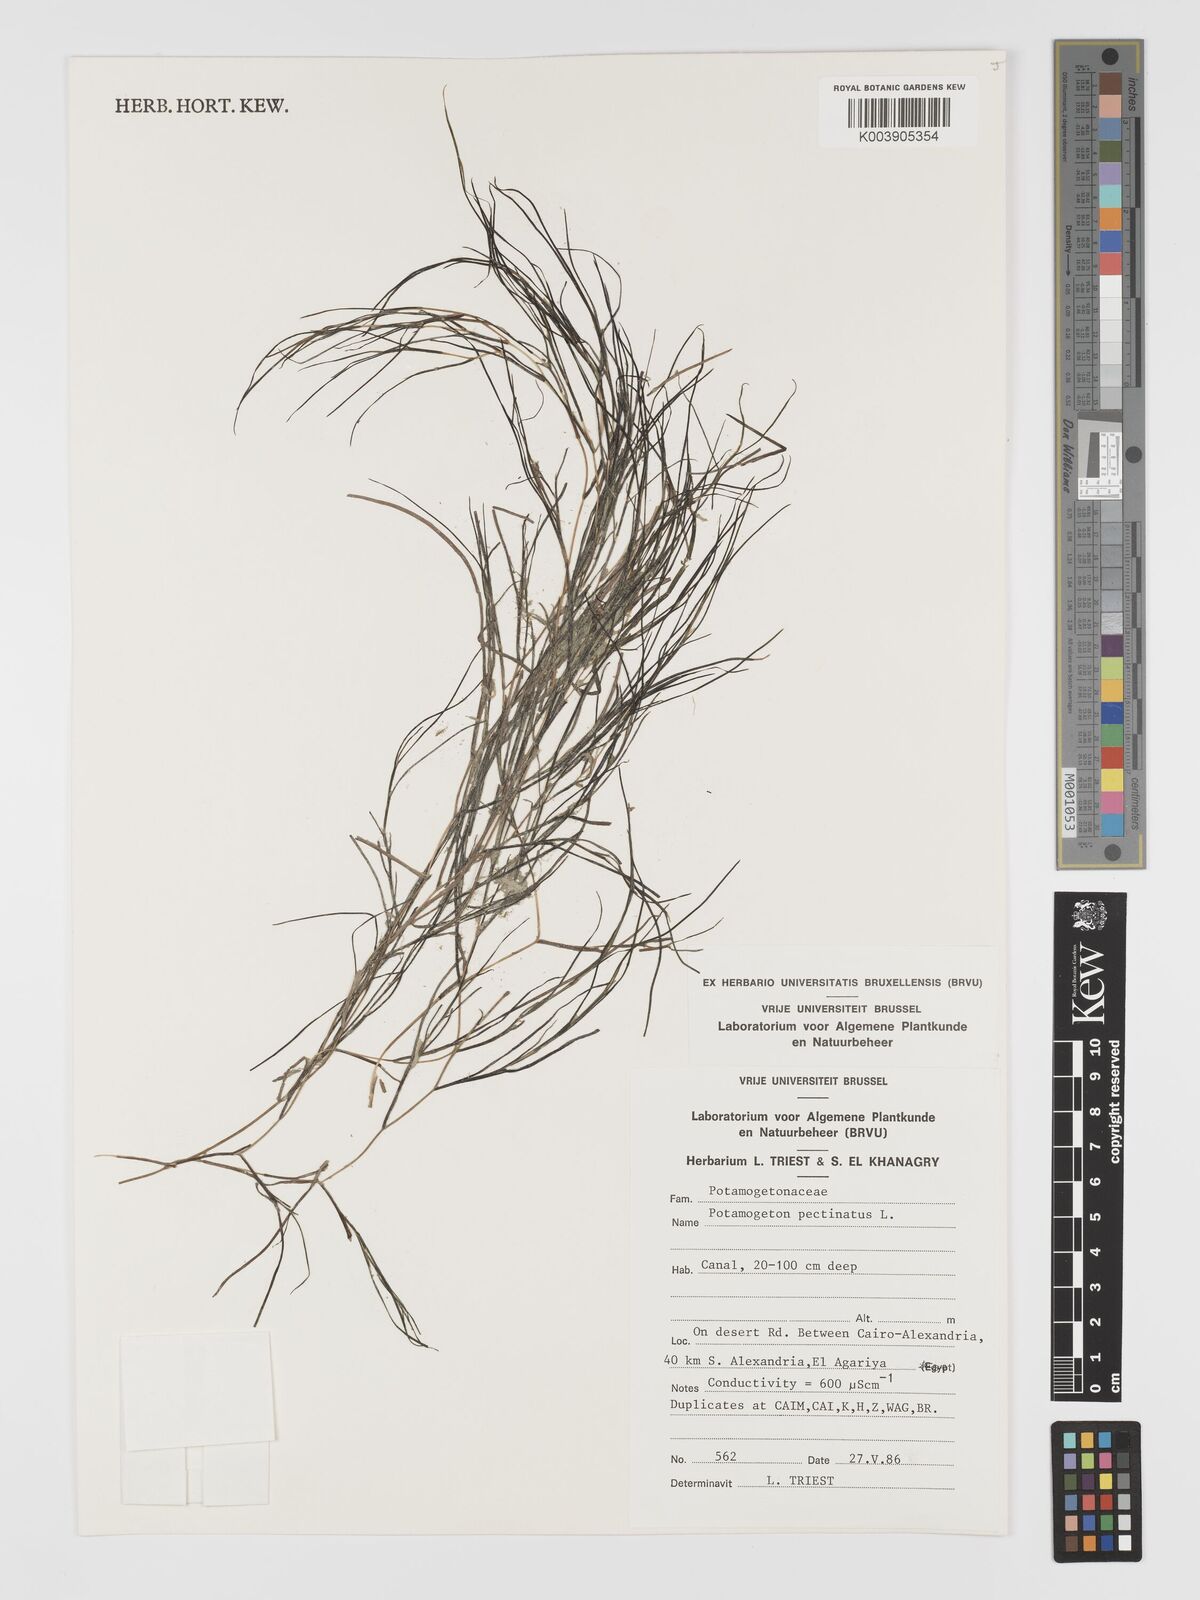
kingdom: Plantae
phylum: Tracheophyta
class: Liliopsida
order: Alismatales
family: Potamogetonaceae
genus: Stuckenia
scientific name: Stuckenia pectinata
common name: Sago pondweed
